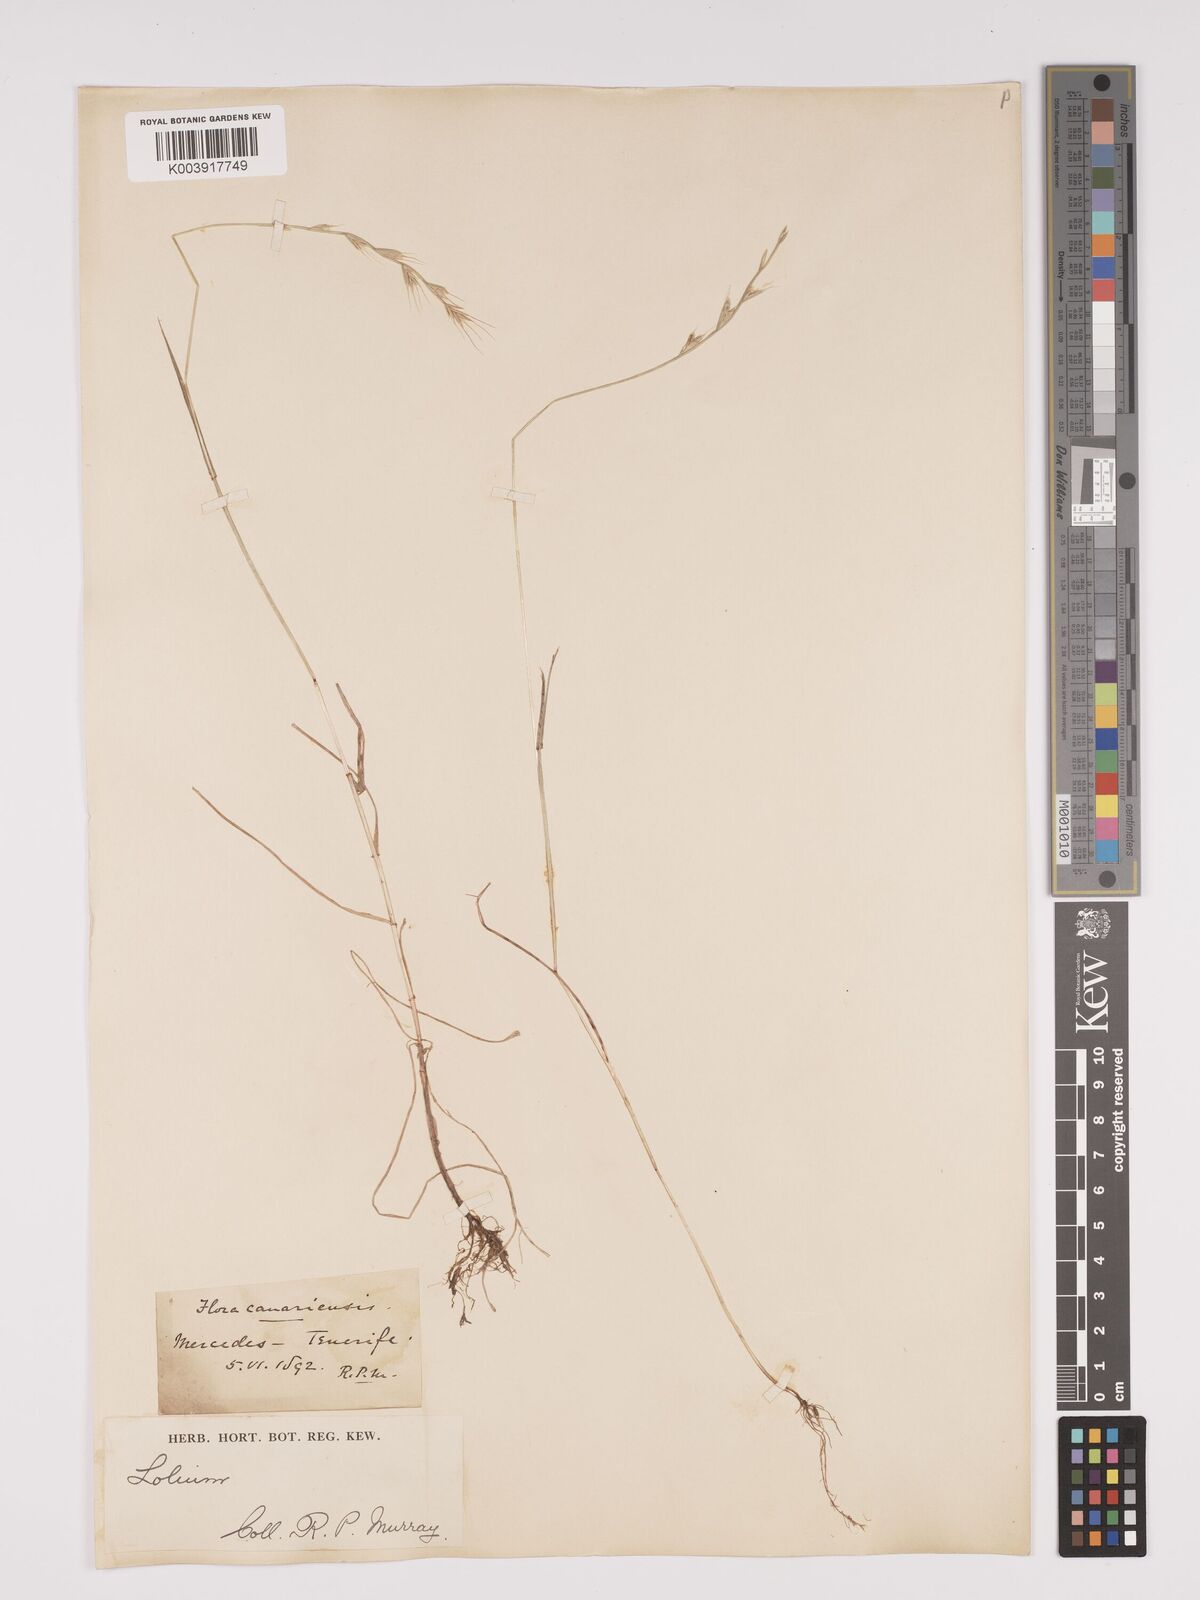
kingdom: Plantae
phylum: Tracheophyta
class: Liliopsida
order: Poales
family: Poaceae
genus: Lolium
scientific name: Lolium canariense
